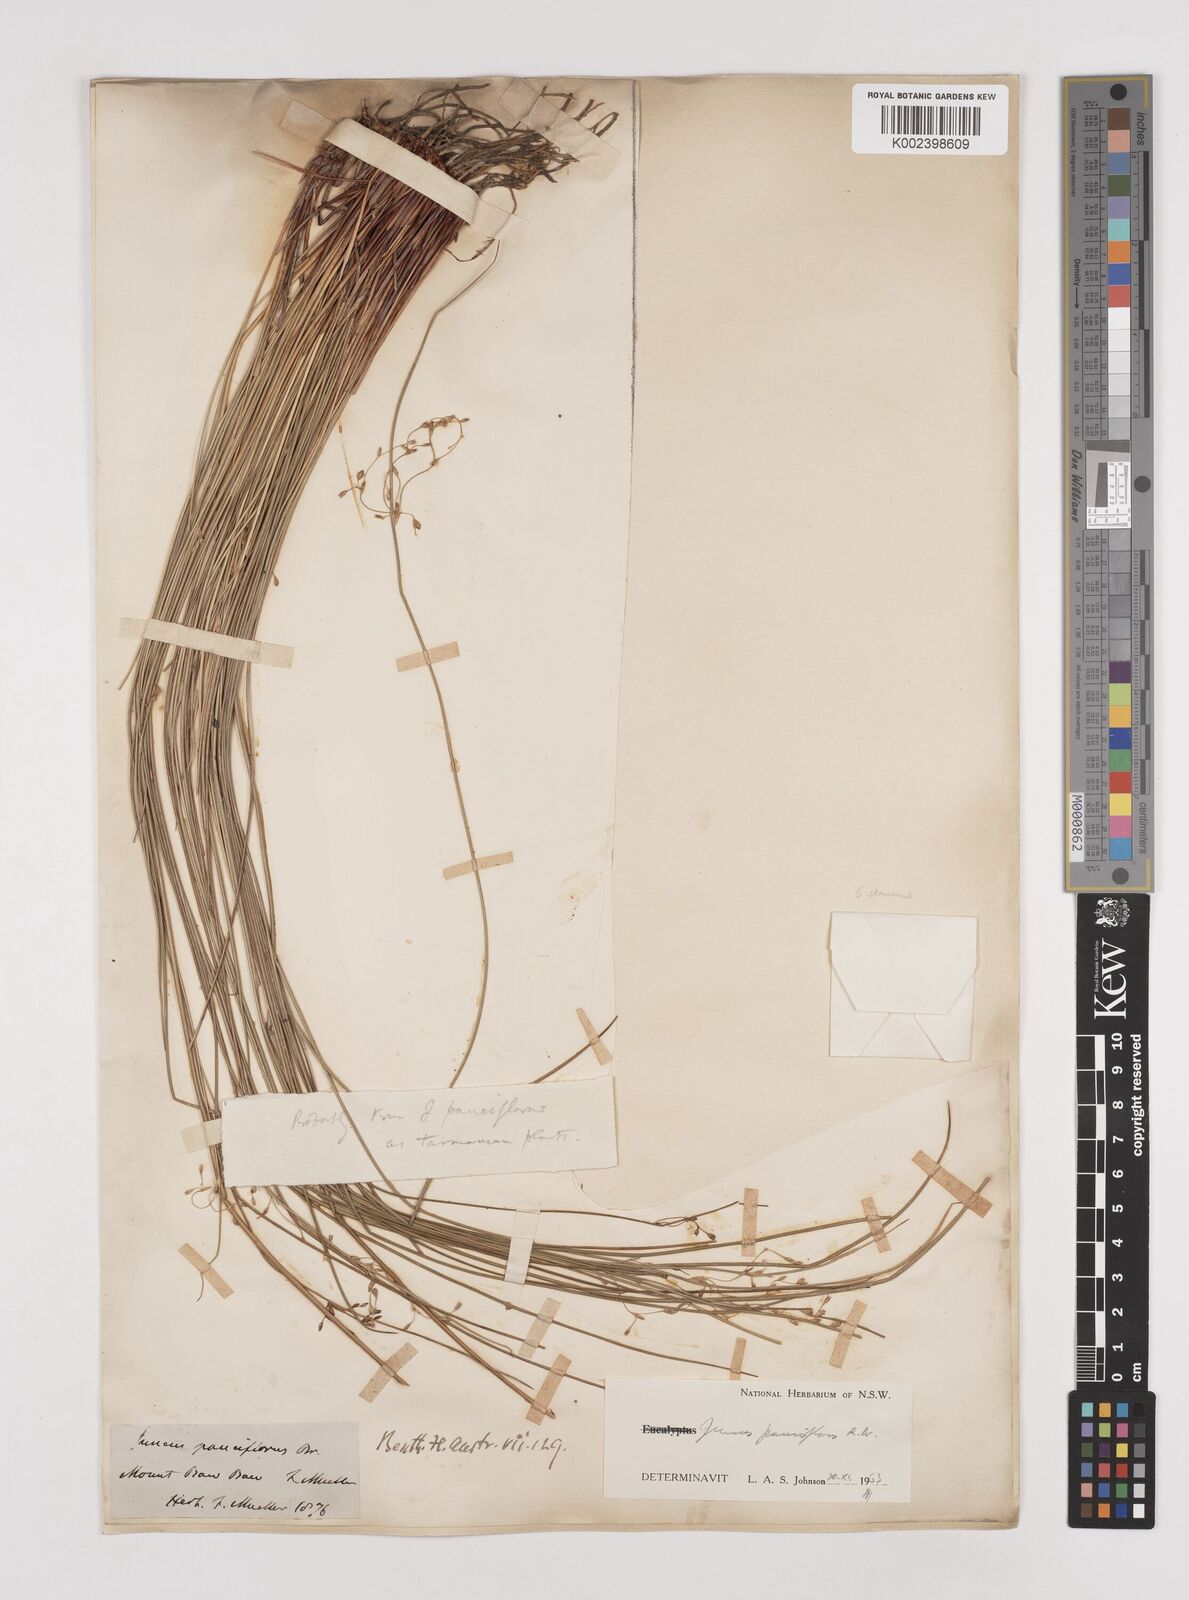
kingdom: Plantae
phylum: Tracheophyta
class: Liliopsida
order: Poales
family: Juncaceae
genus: Juncus
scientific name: Juncus pauciflorus
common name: Loose-flowered rush
